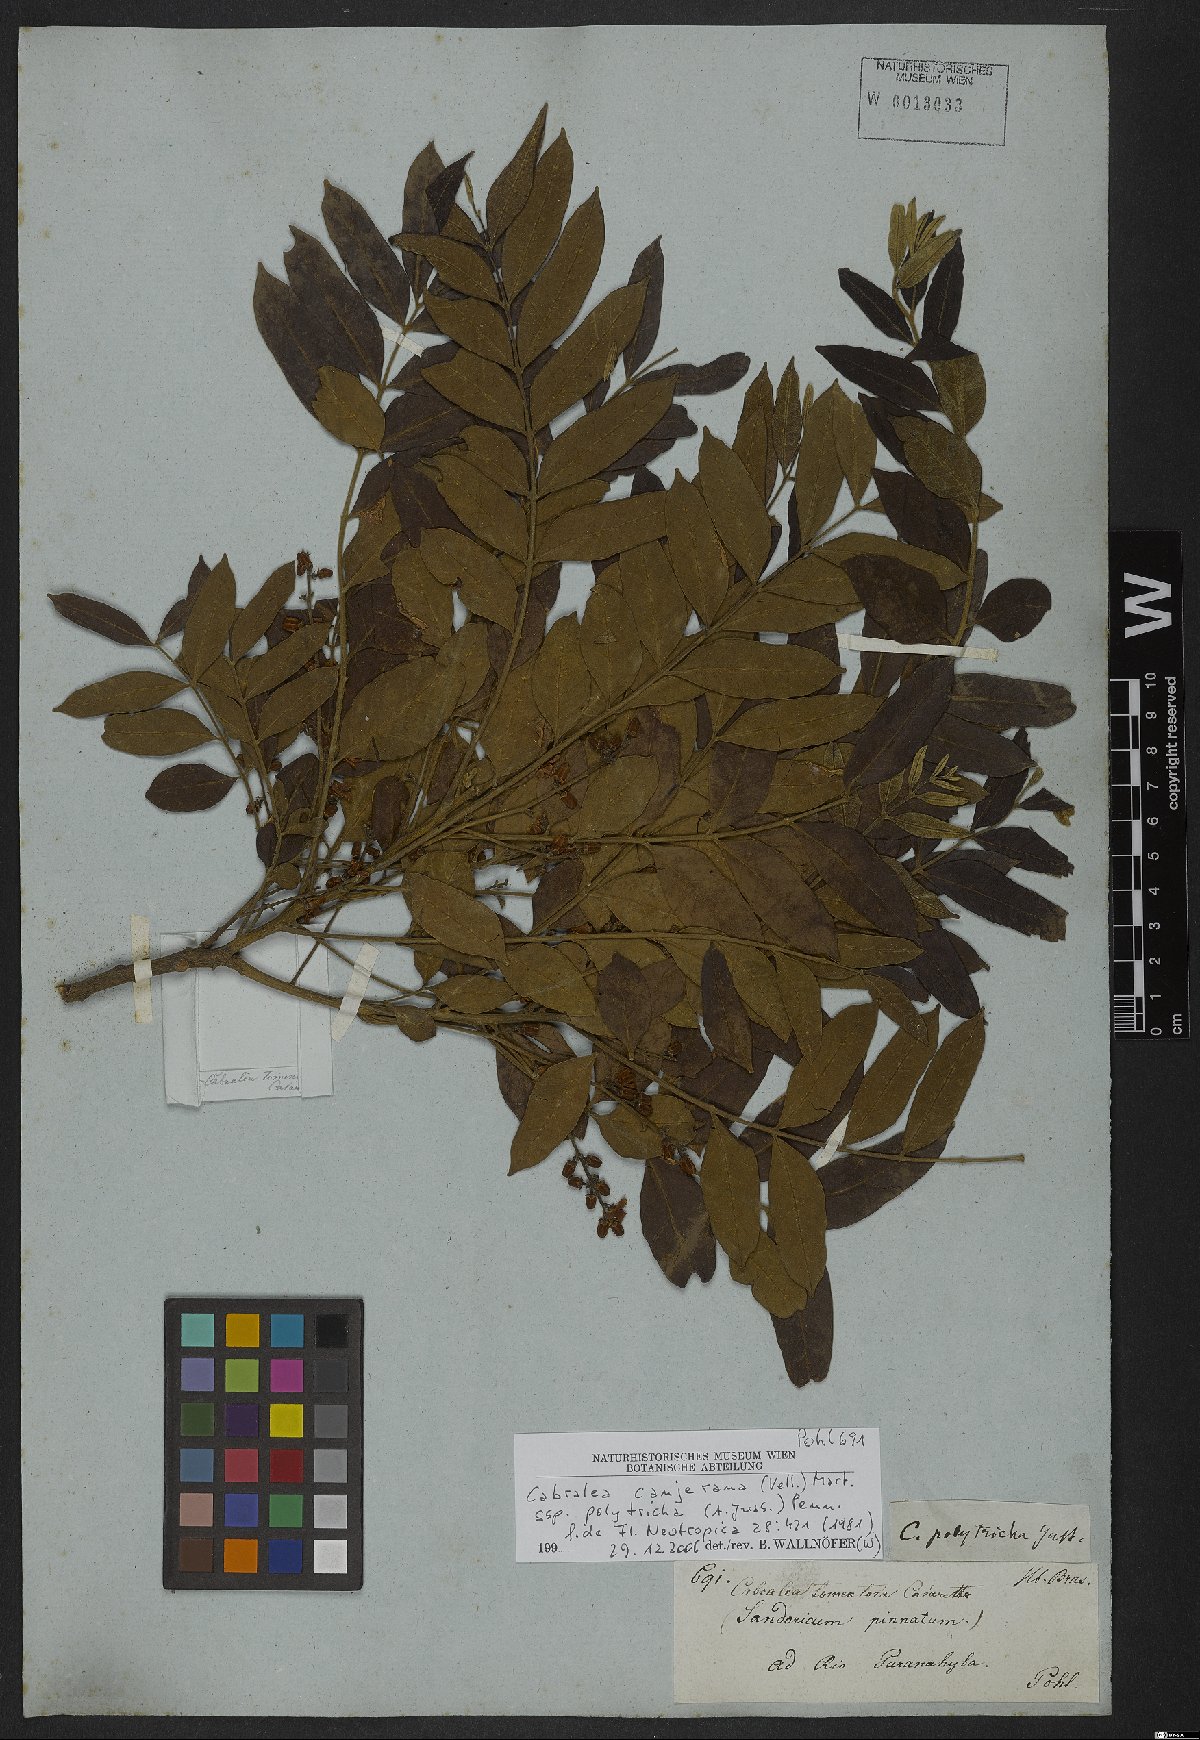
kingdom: Plantae
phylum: Tracheophyta
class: Magnoliopsida
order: Sapindales
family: Meliaceae
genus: Cabralea
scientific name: Cabralea canjerana
